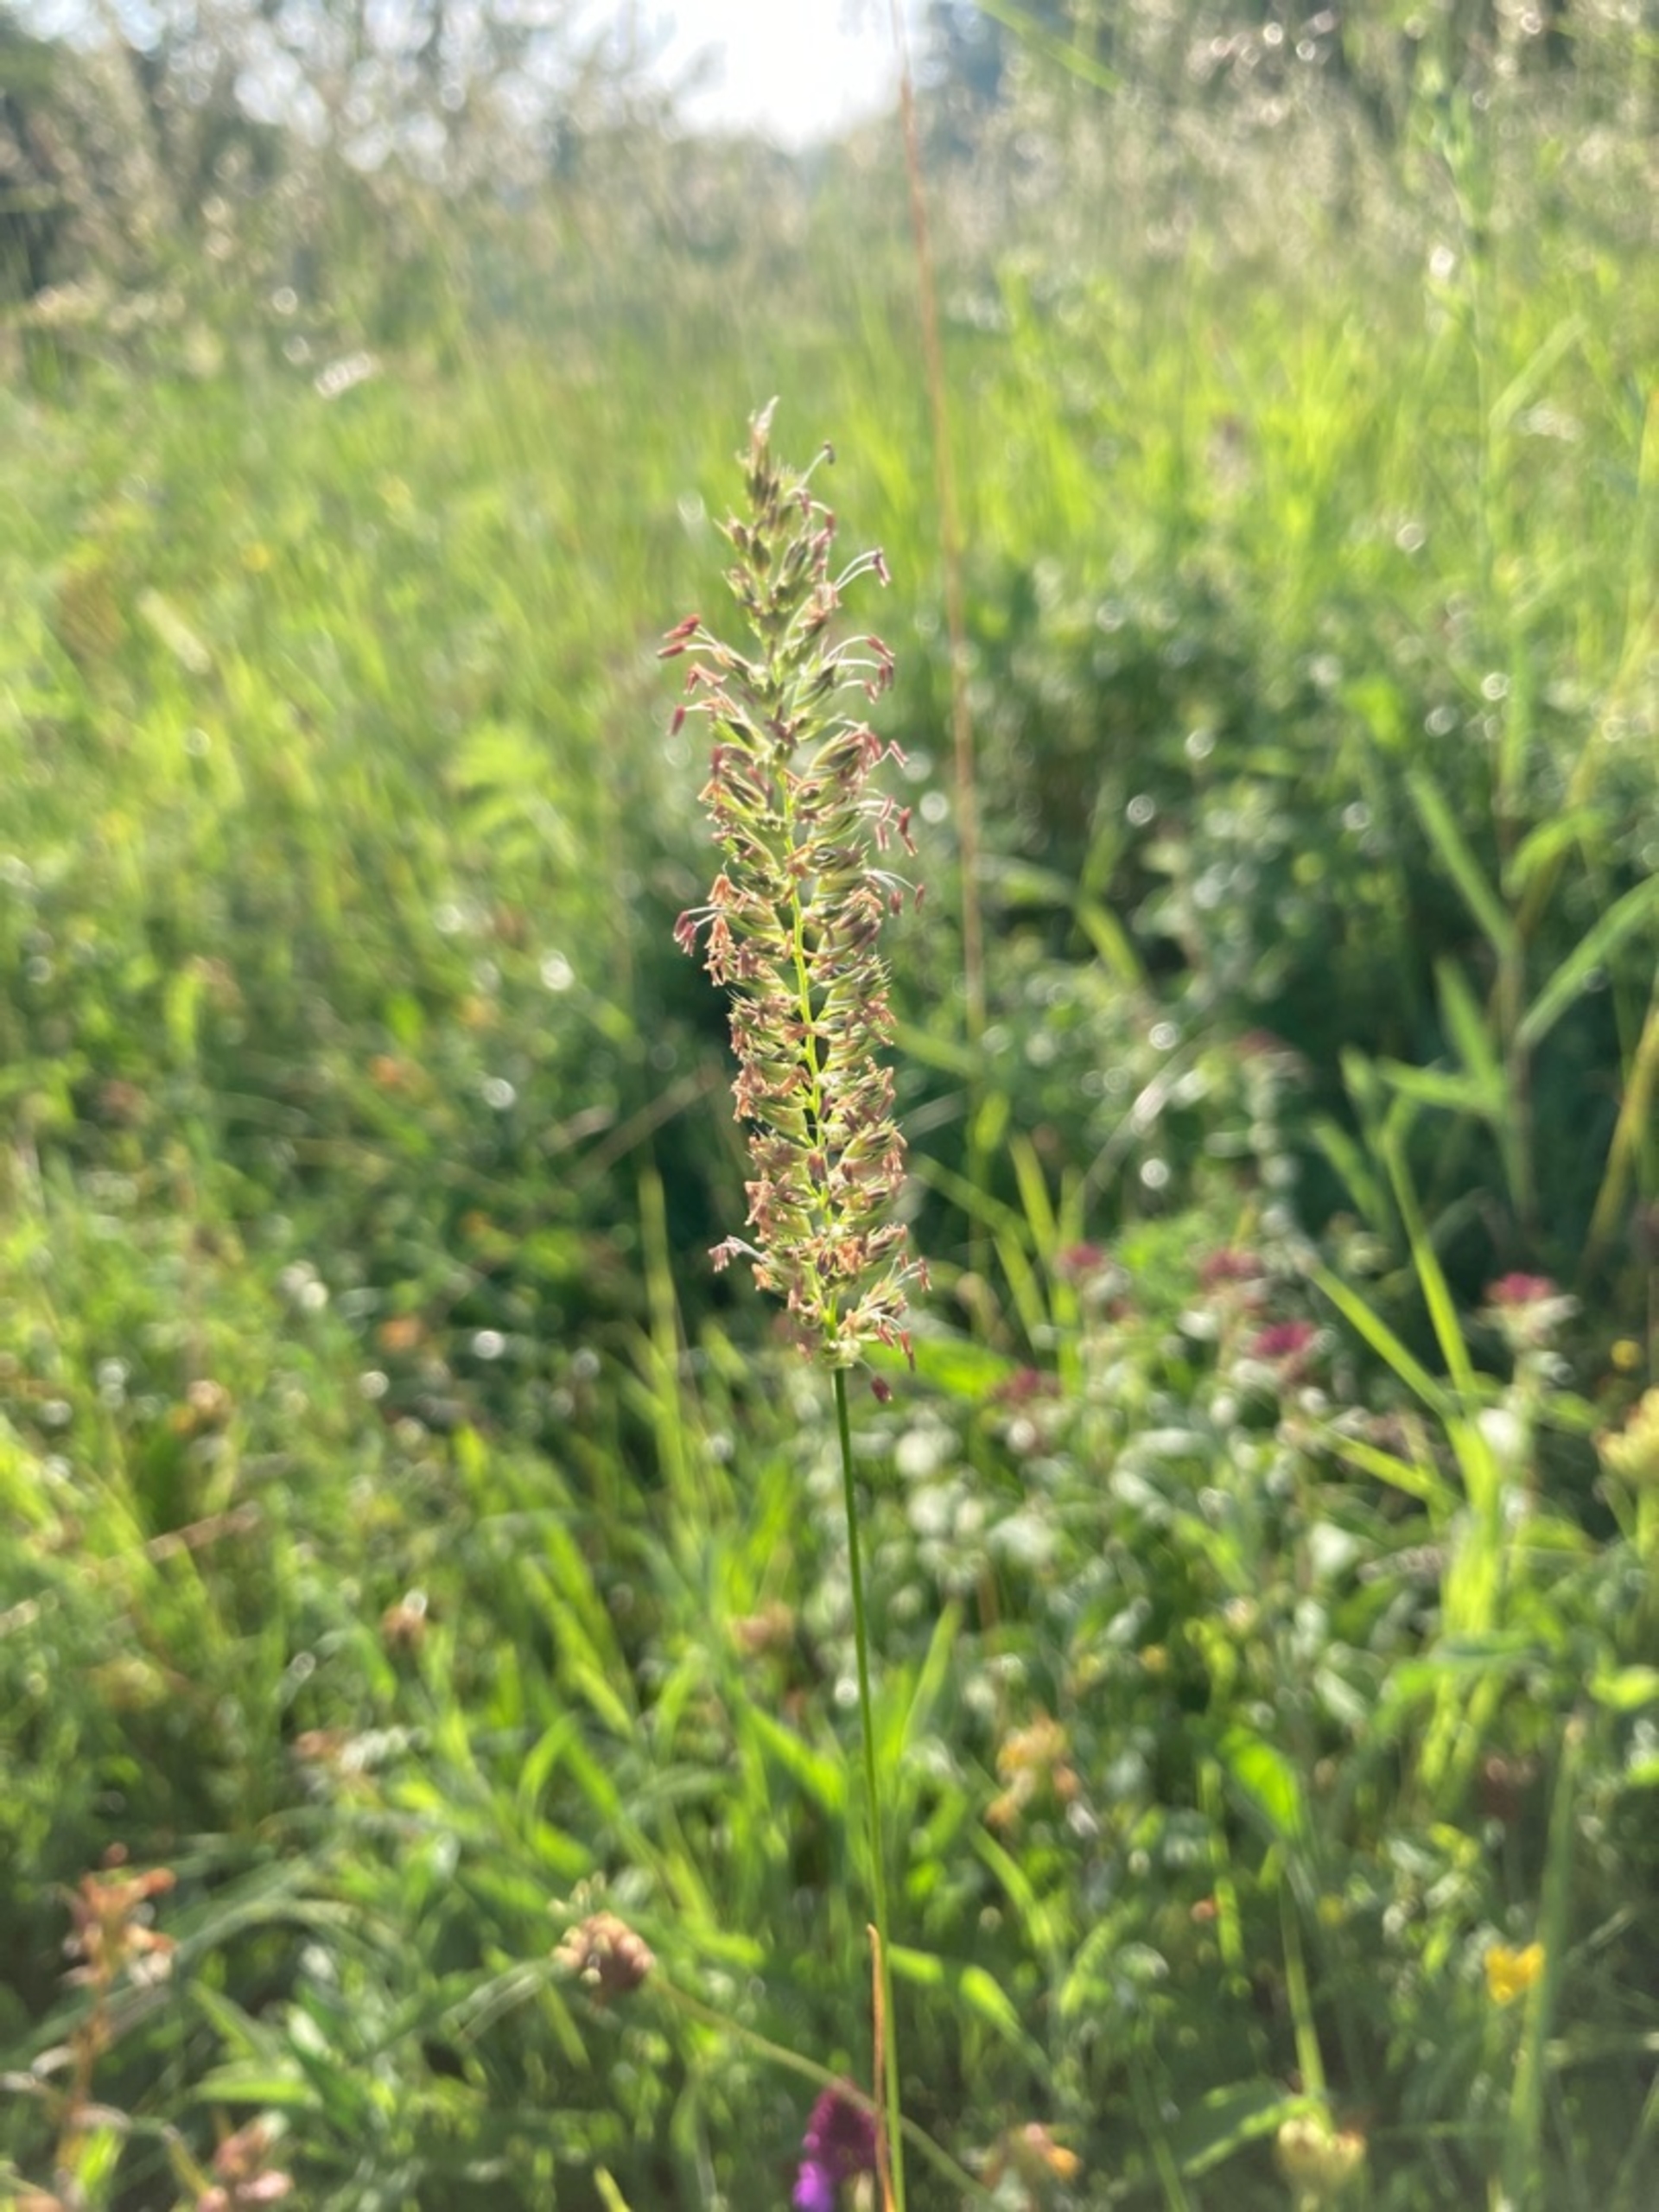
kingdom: Plantae
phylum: Tracheophyta
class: Liliopsida
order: Poales
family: Poaceae
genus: Cynosurus
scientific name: Cynosurus cristatus
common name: Kamgræs
